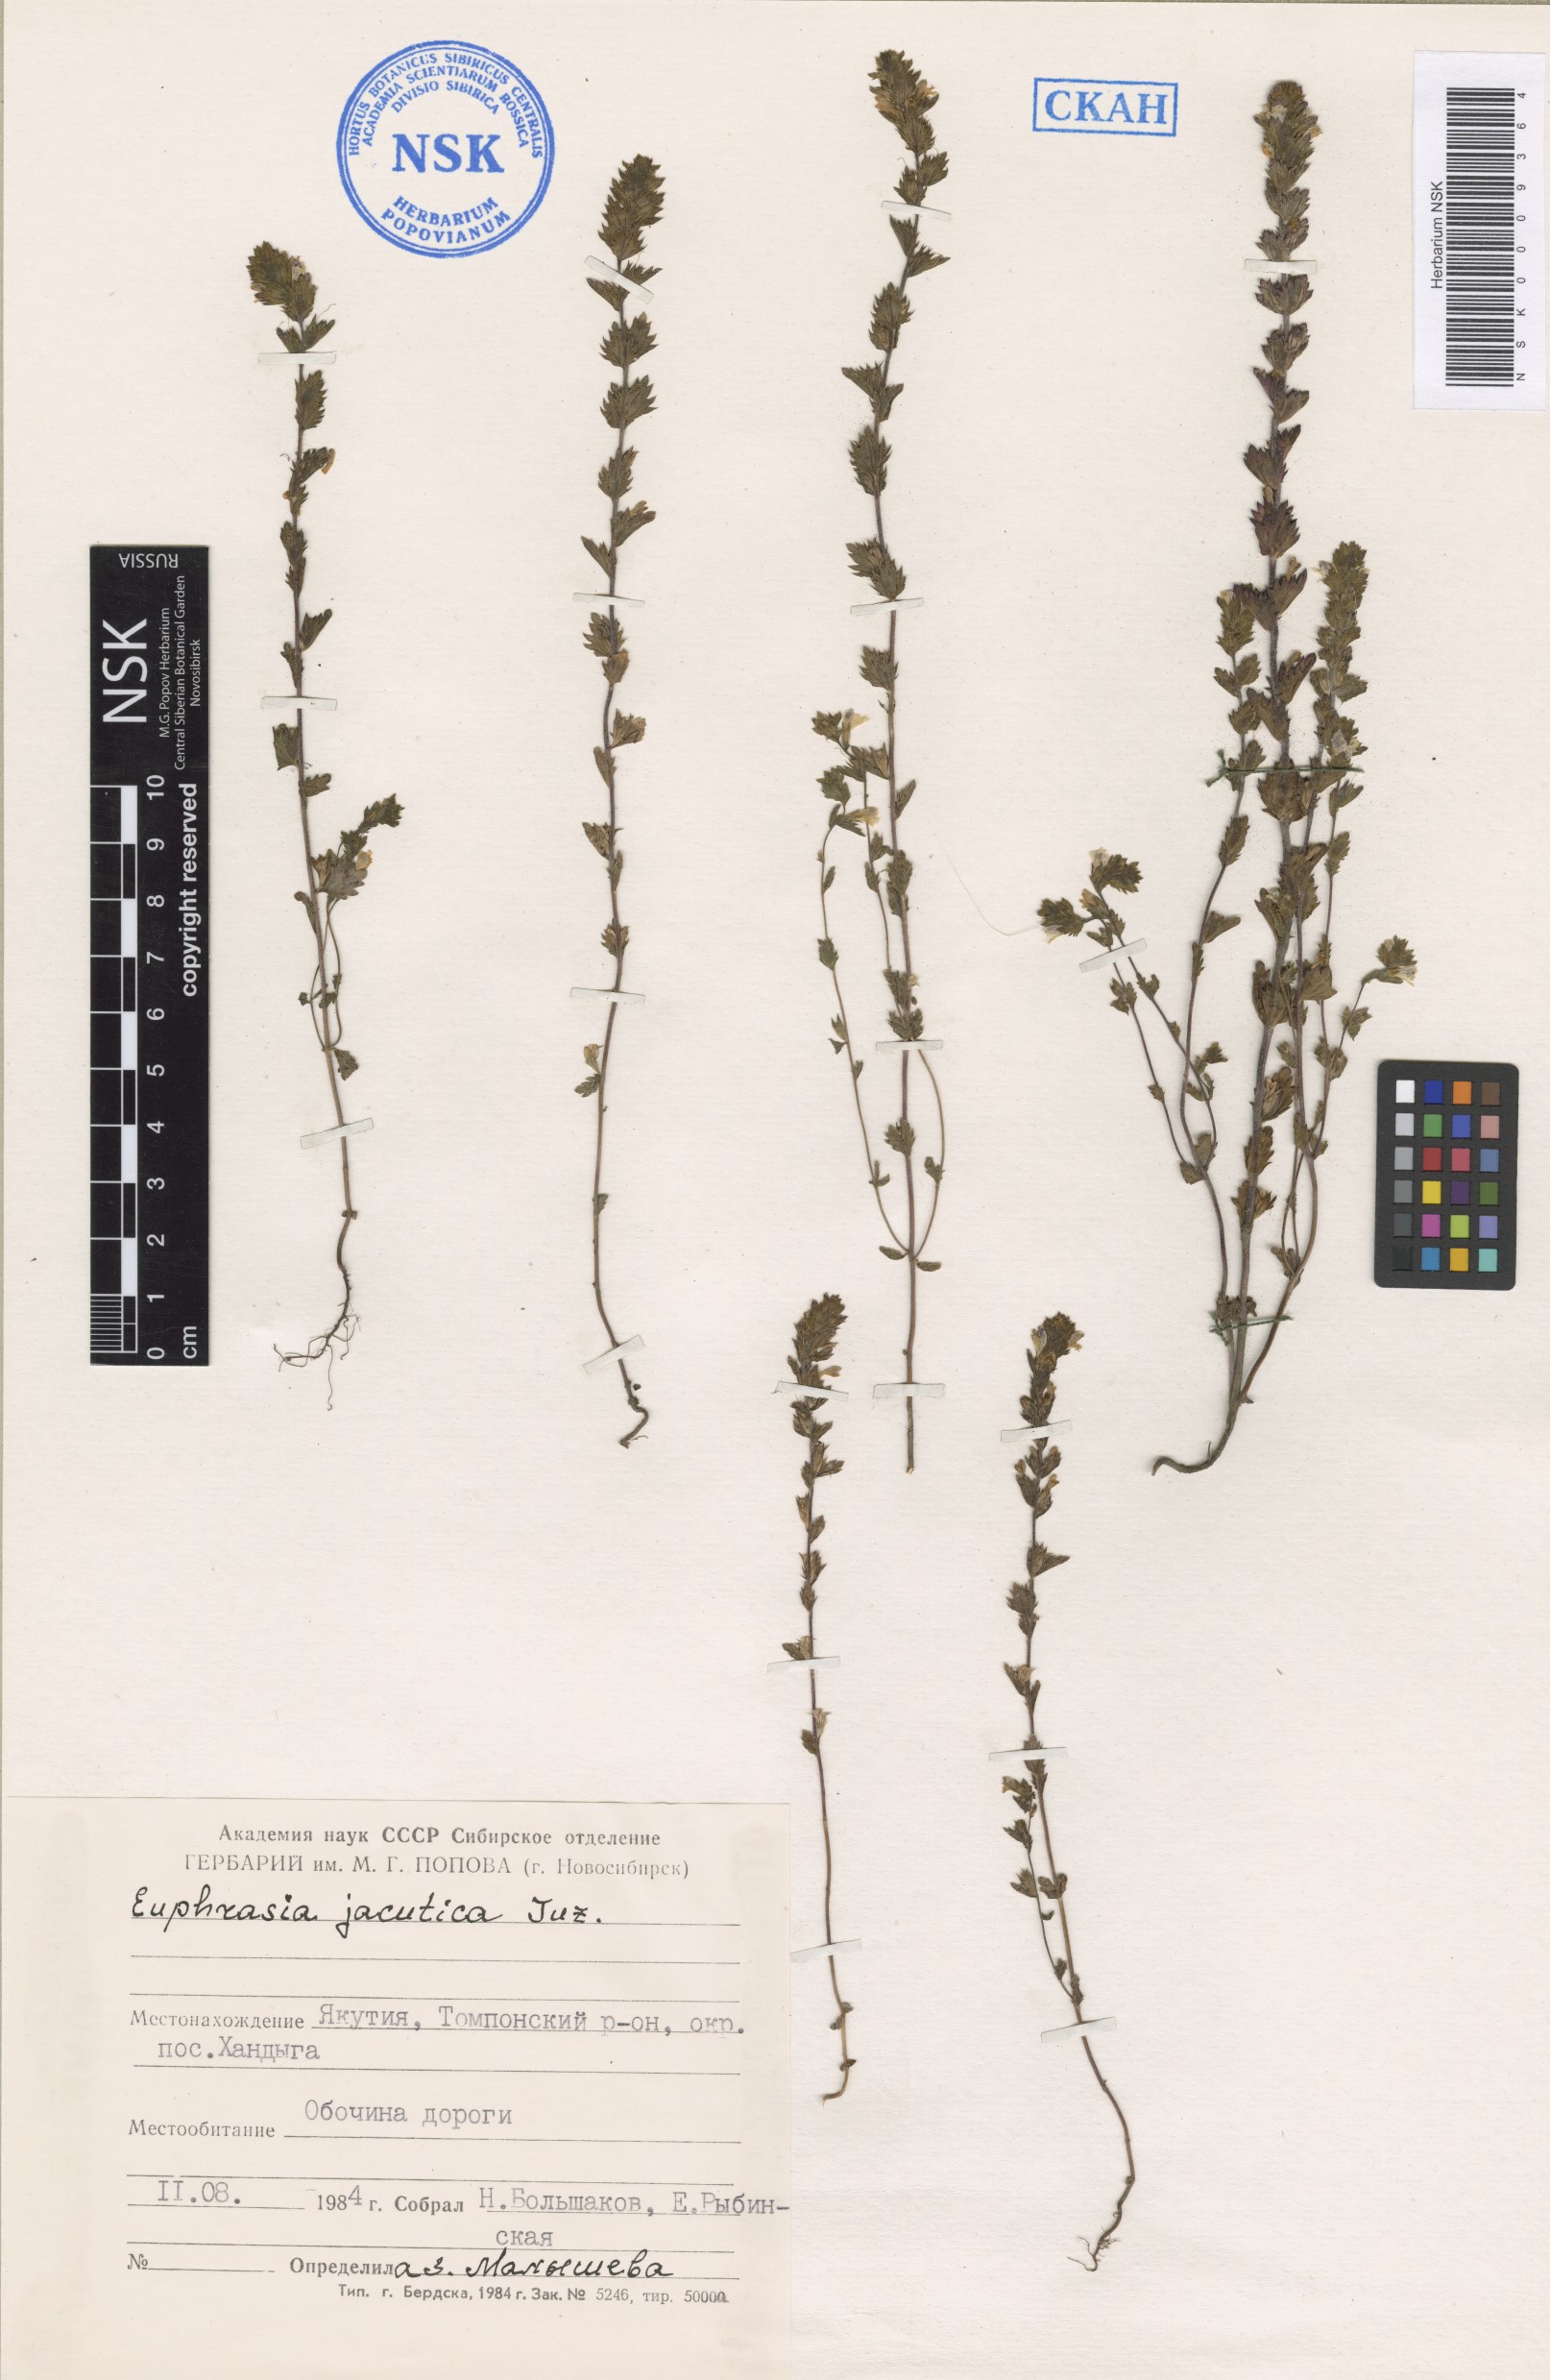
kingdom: Plantae
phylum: Tracheophyta
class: Magnoliopsida
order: Lamiales
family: Orobanchaceae
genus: Euphrasia
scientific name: Euphrasia jacutica
